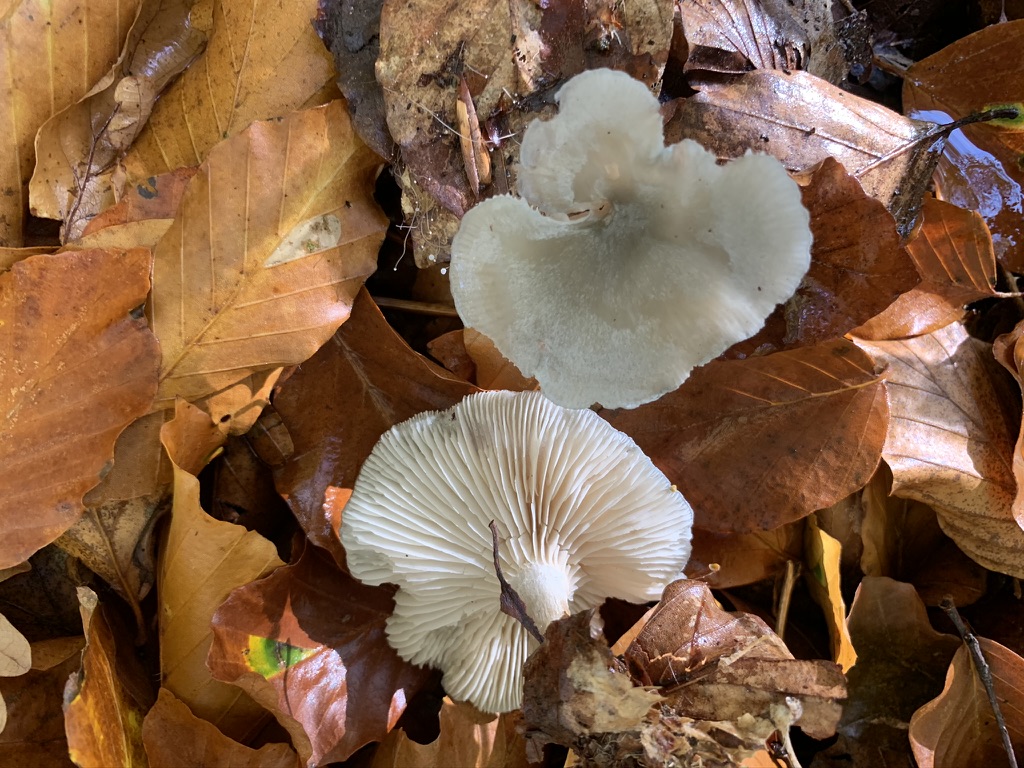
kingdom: Fungi
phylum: Basidiomycota
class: Agaricomycetes
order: Agaricales
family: Tricholomataceae
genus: Clitocybe
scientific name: Clitocybe odora
